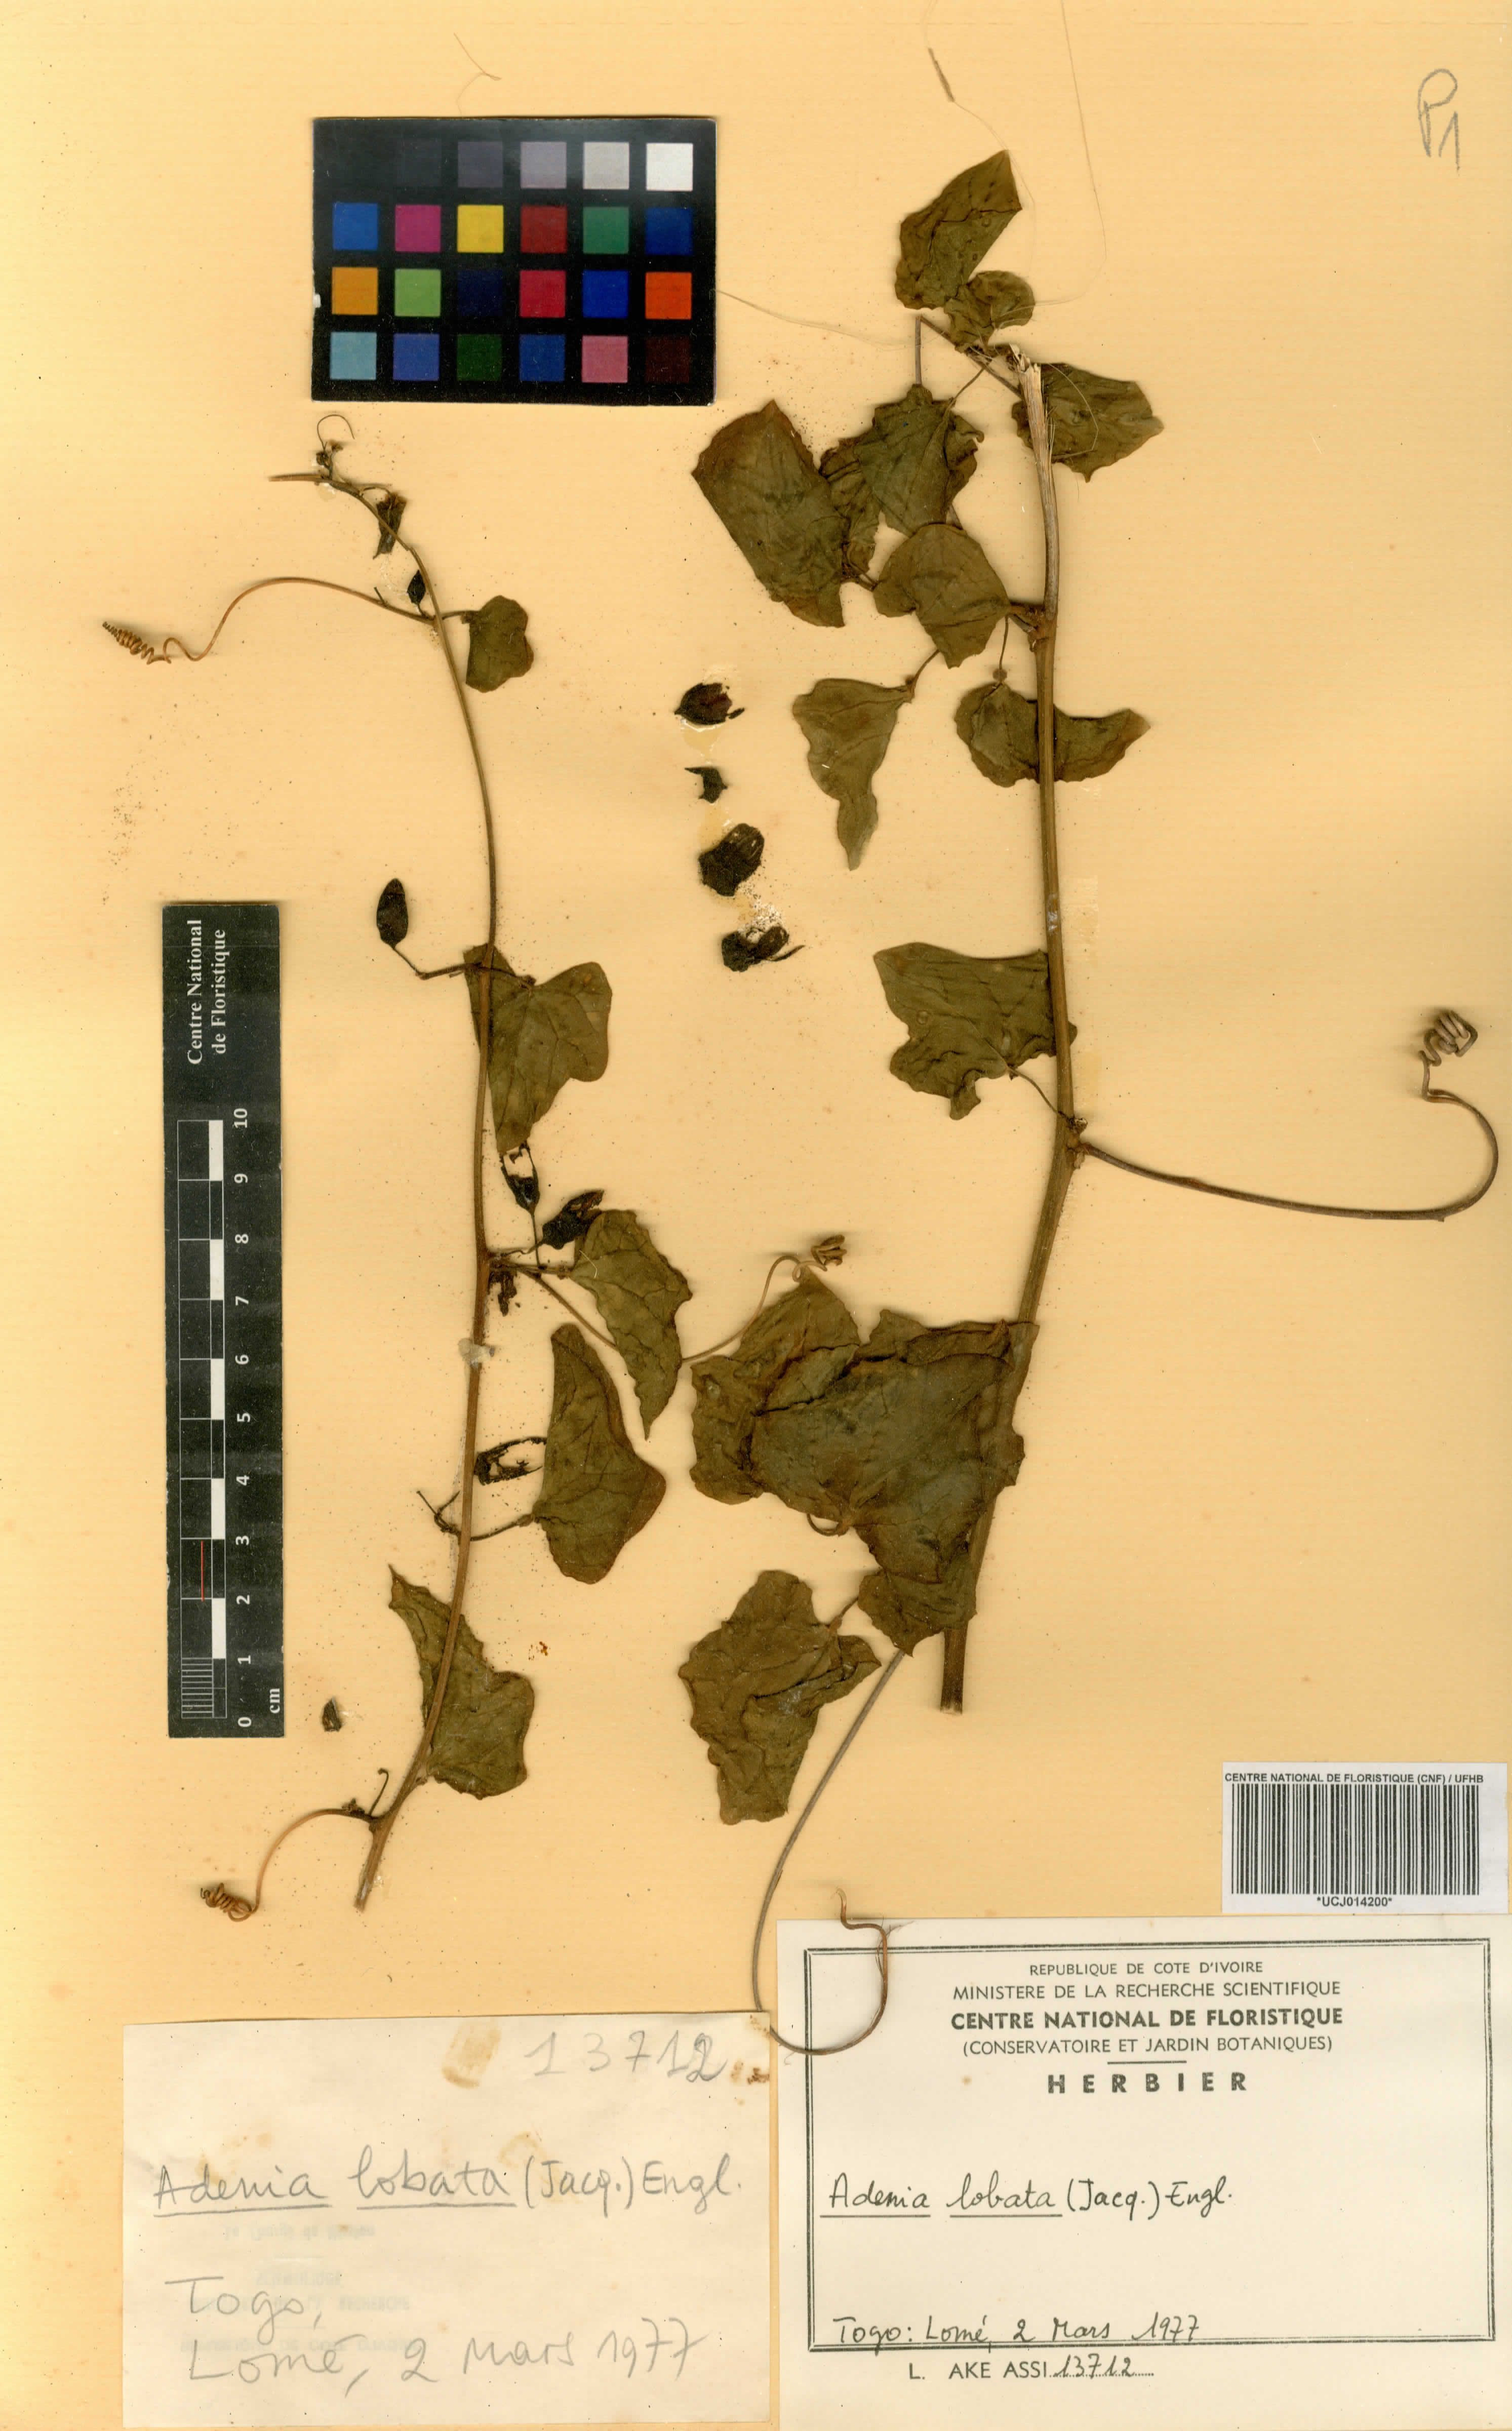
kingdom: Plantae
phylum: Tracheophyta
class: Magnoliopsida
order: Malpighiales
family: Passifloraceae
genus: Adenia
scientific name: Adenia lobata
